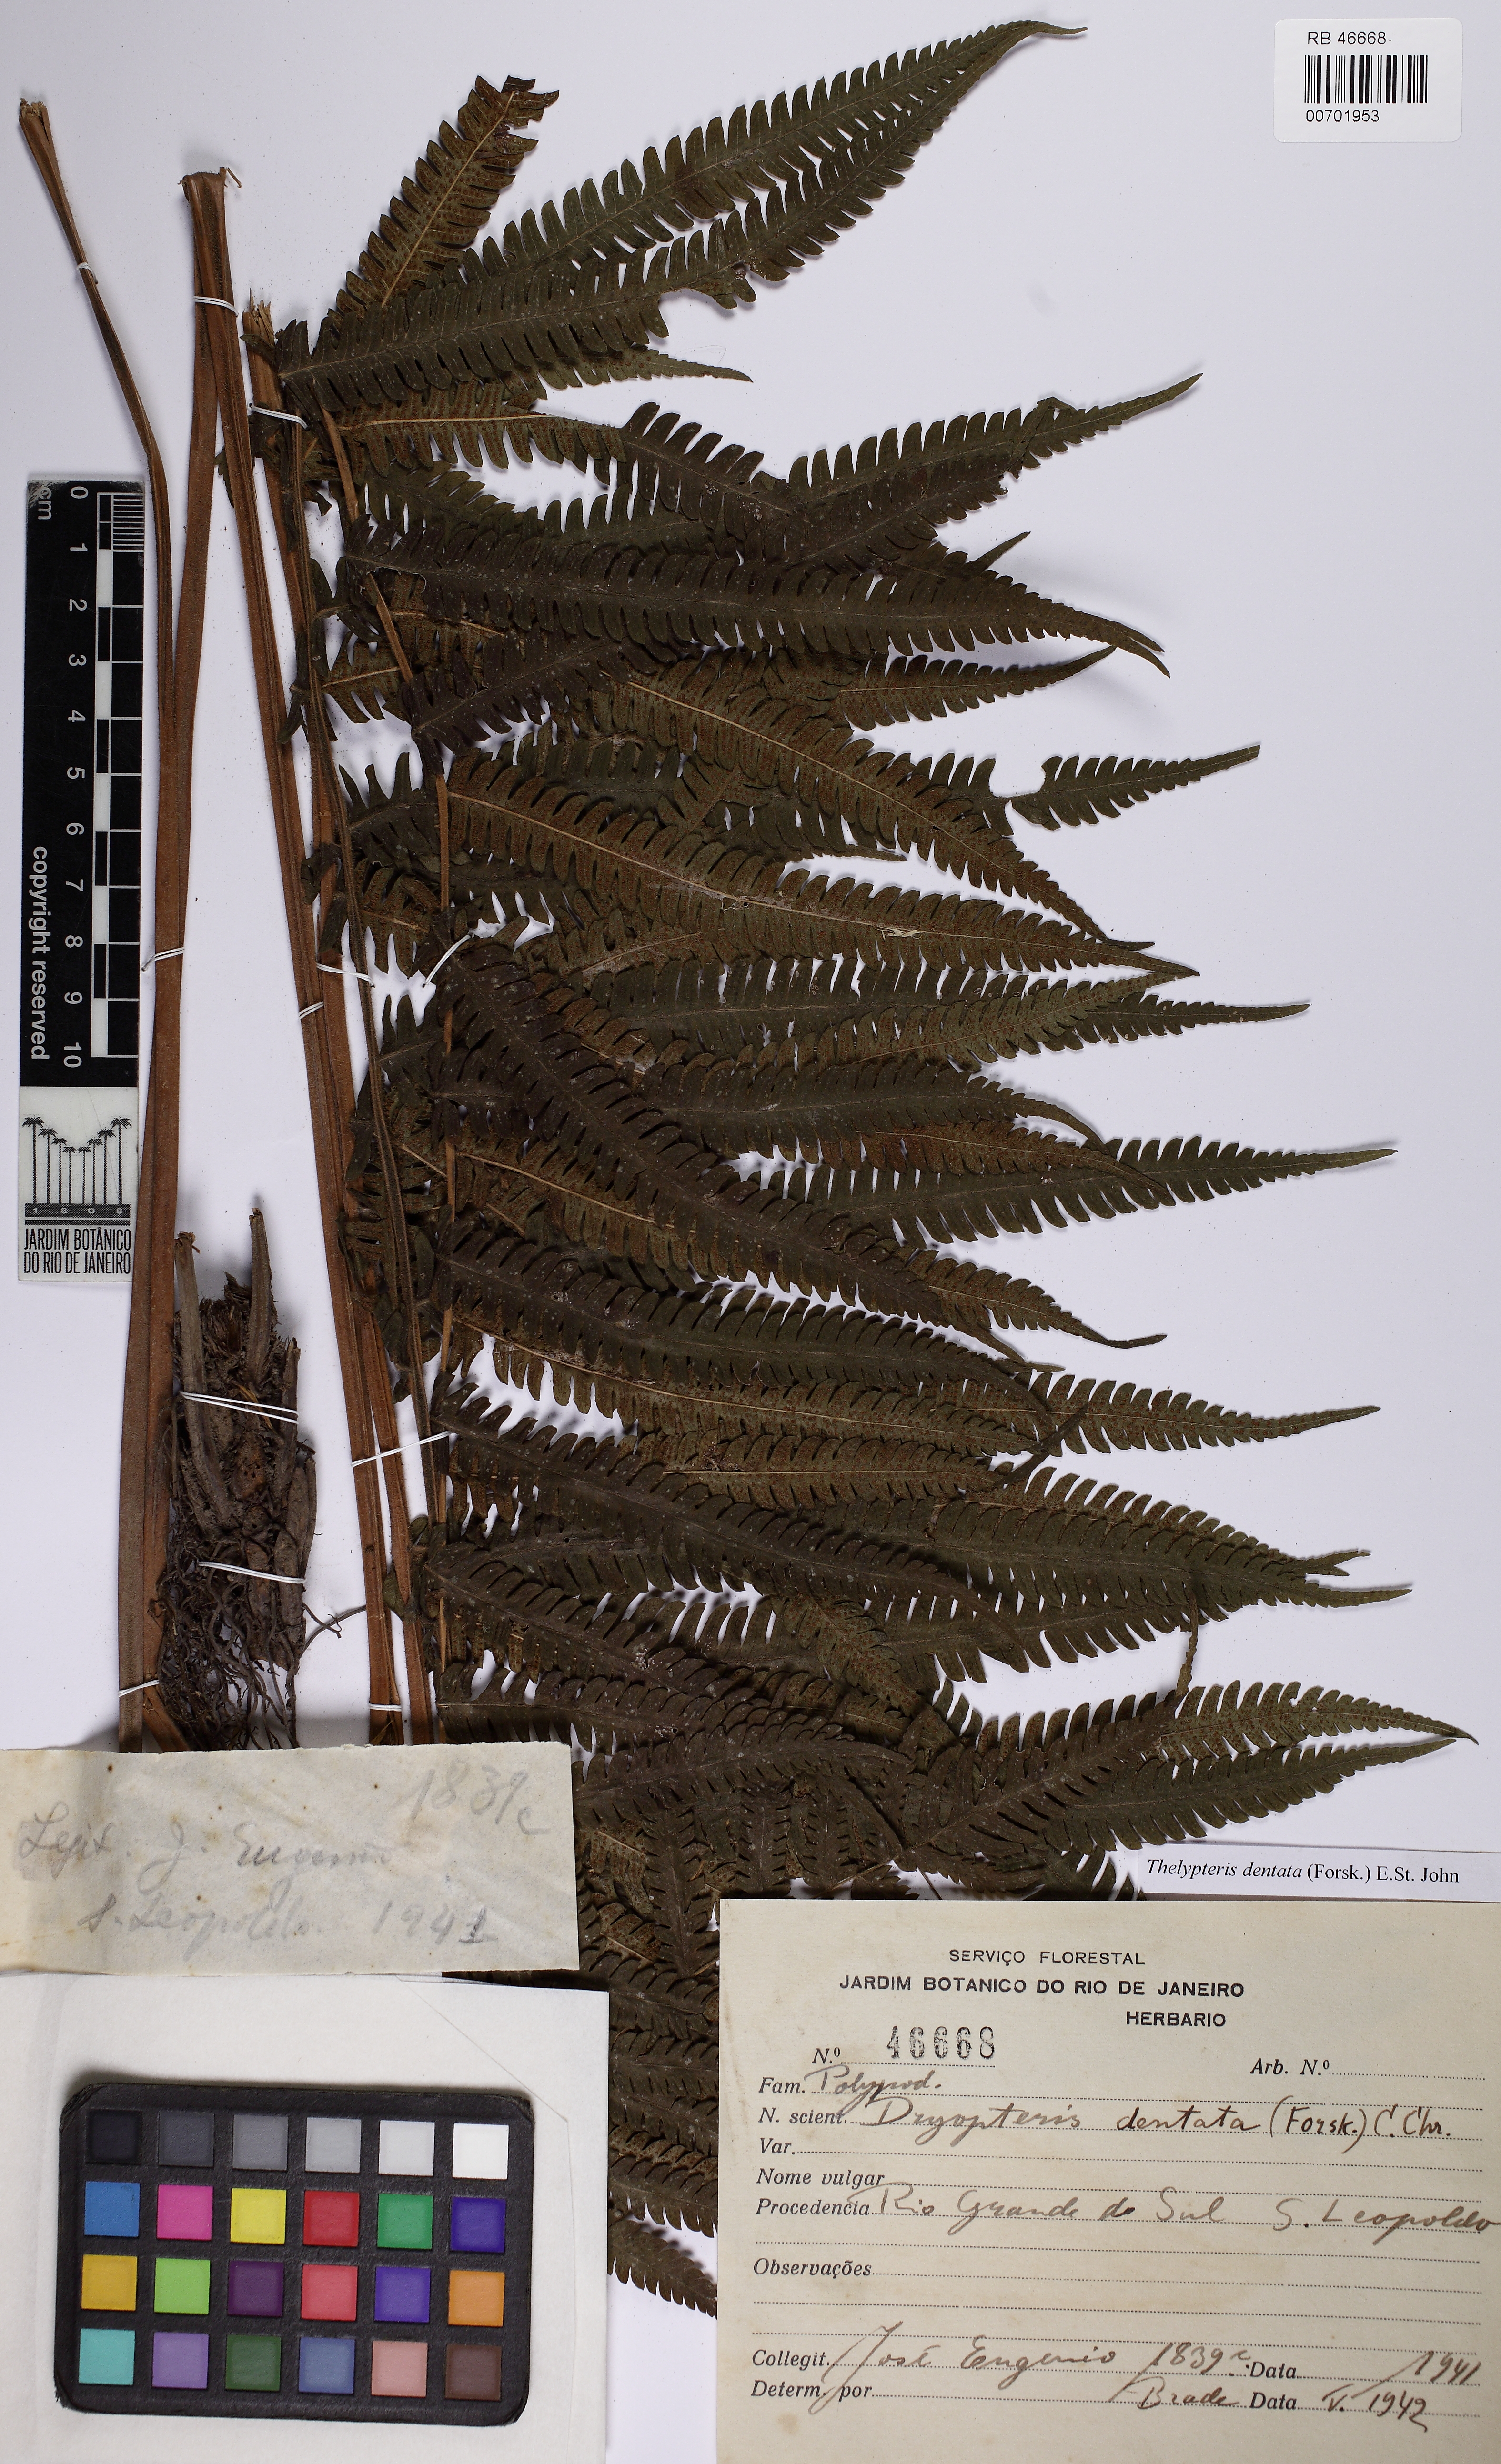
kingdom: Plantae
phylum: Tracheophyta
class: Polypodiopsida
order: Polypodiales
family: Thelypteridaceae
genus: Christella
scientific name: Christella dentata
